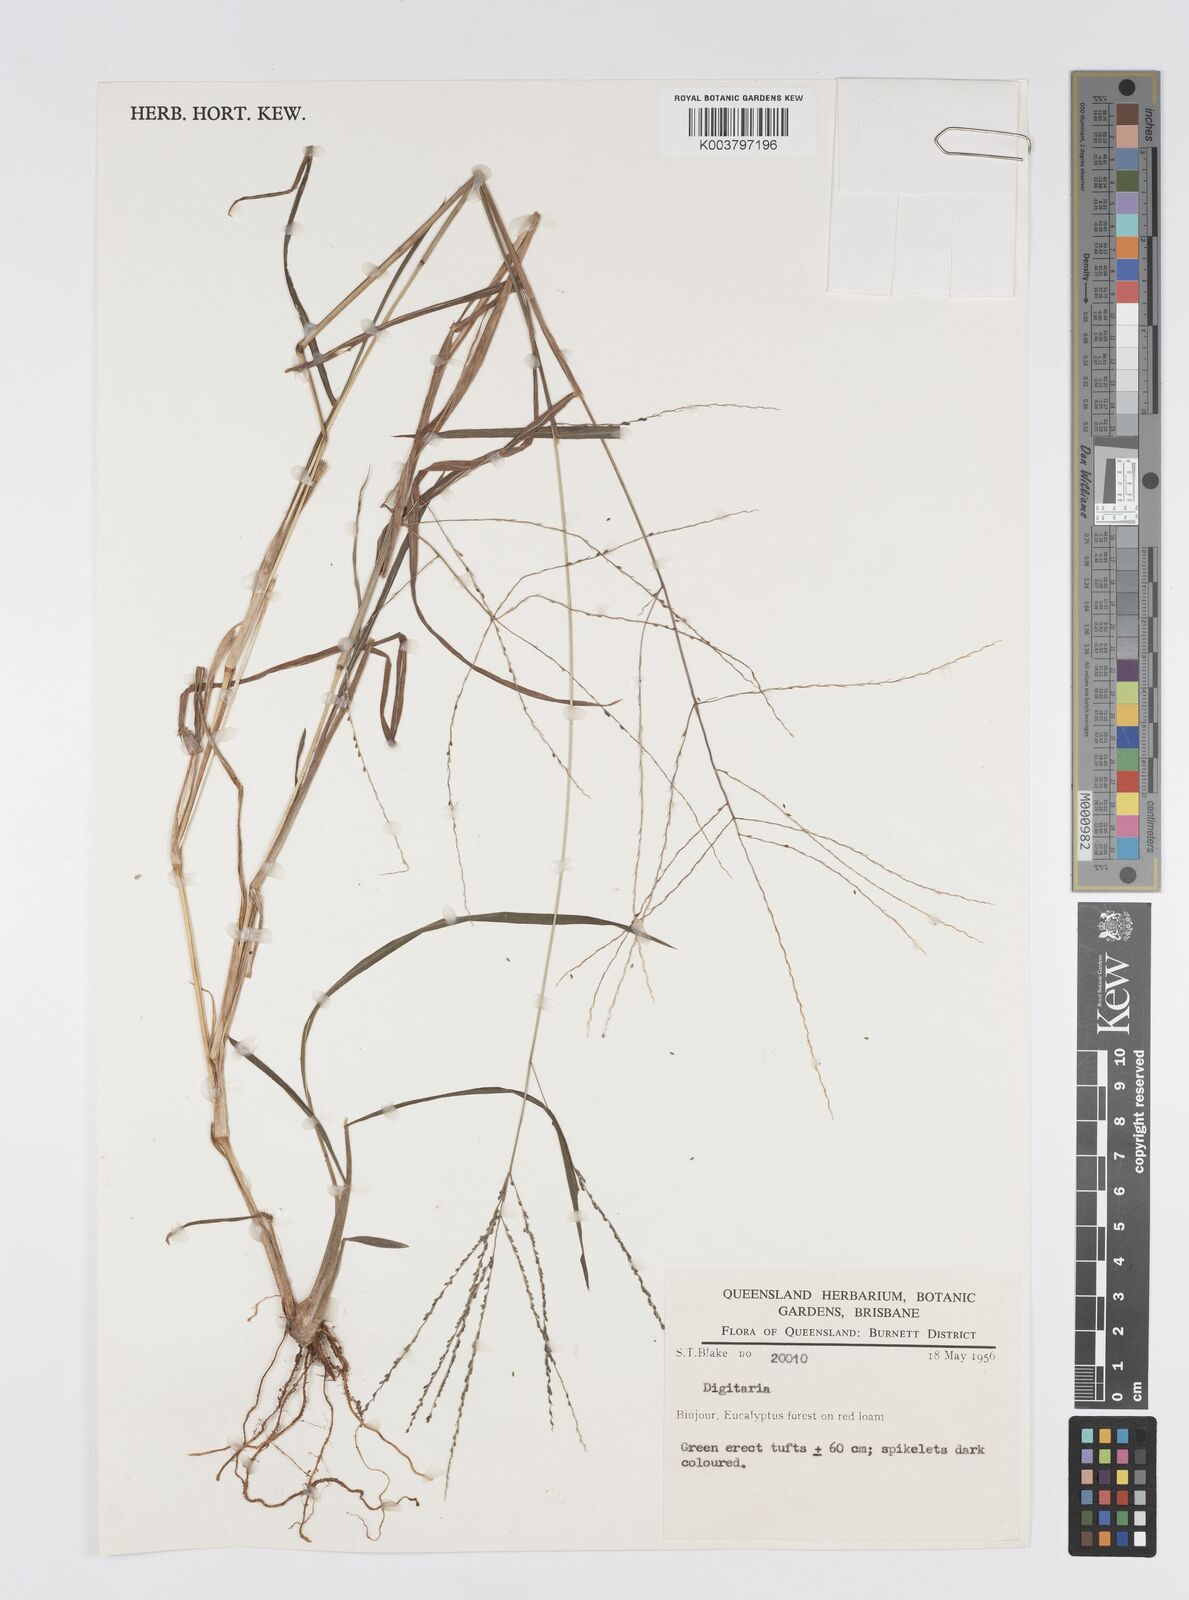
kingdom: Plantae
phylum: Tracheophyta
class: Liliopsida
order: Poales
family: Poaceae
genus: Digitaria
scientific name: Digitaria spec
